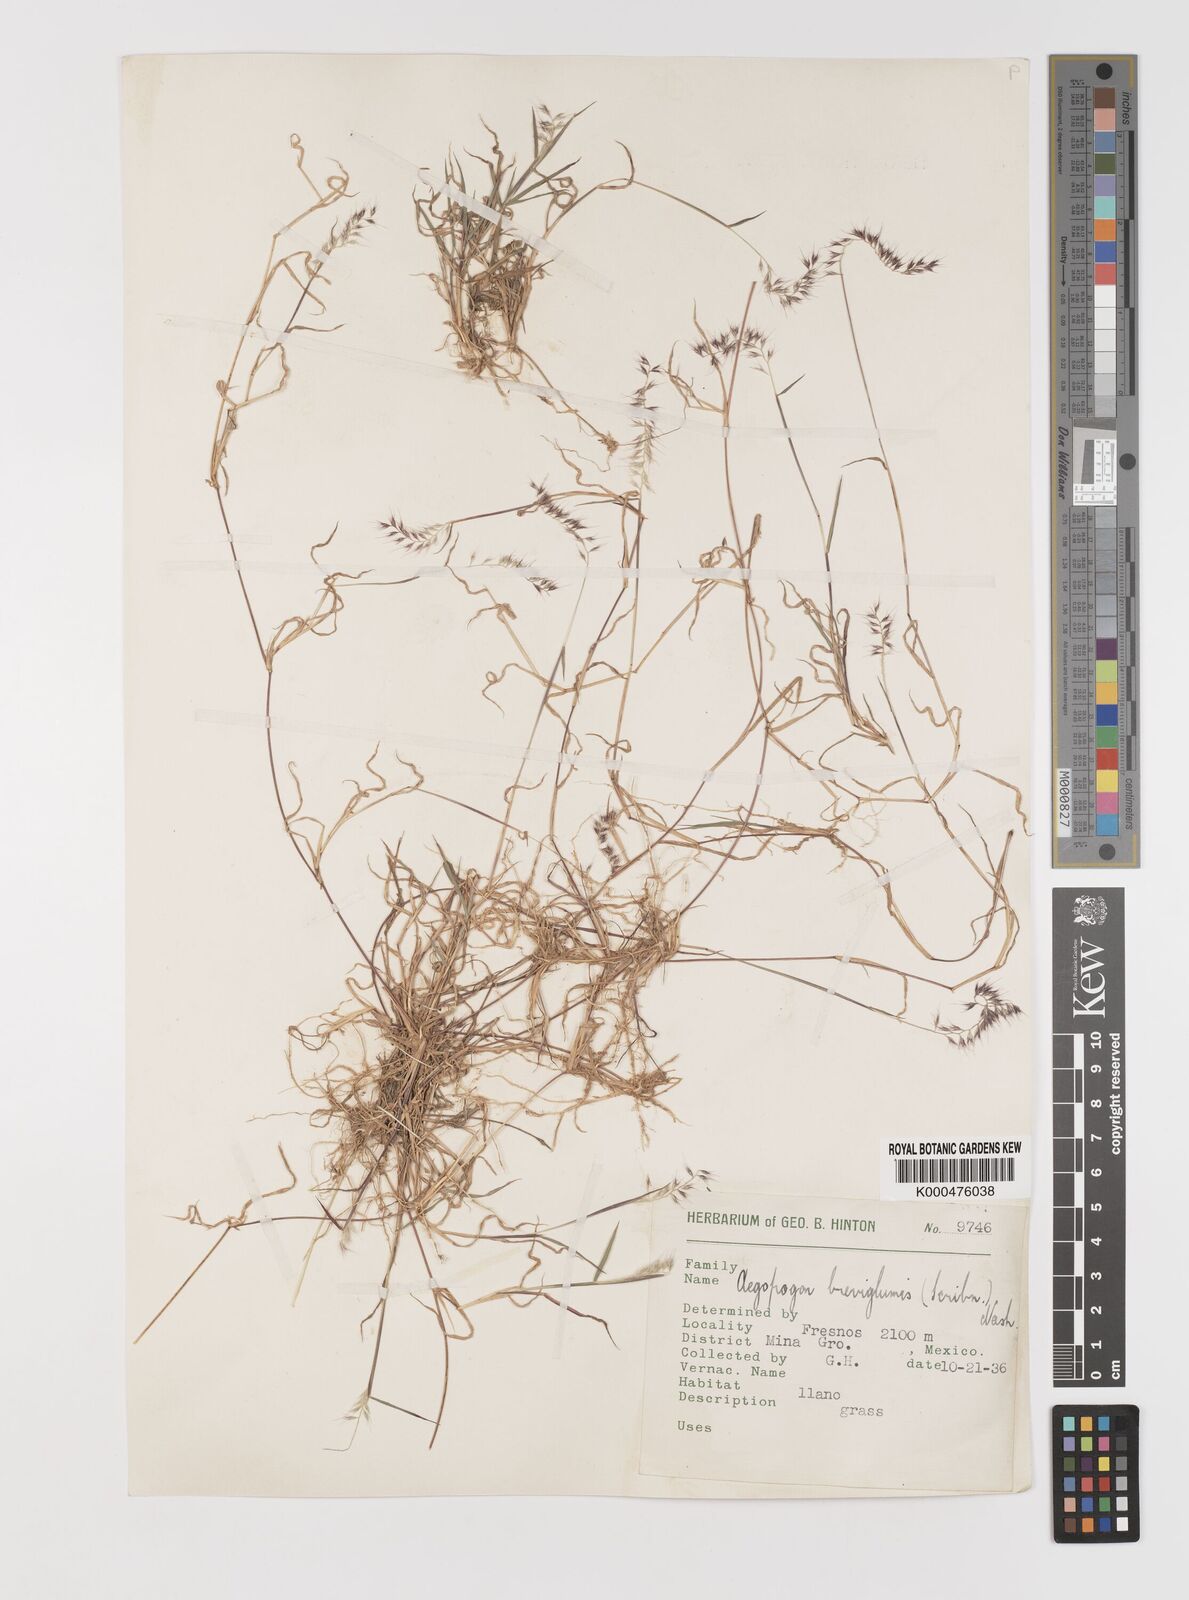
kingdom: Plantae
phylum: Tracheophyta
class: Liliopsida
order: Poales
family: Poaceae
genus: Muhlenbergia
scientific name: Muhlenbergia cenchroides
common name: Relaxgrass
